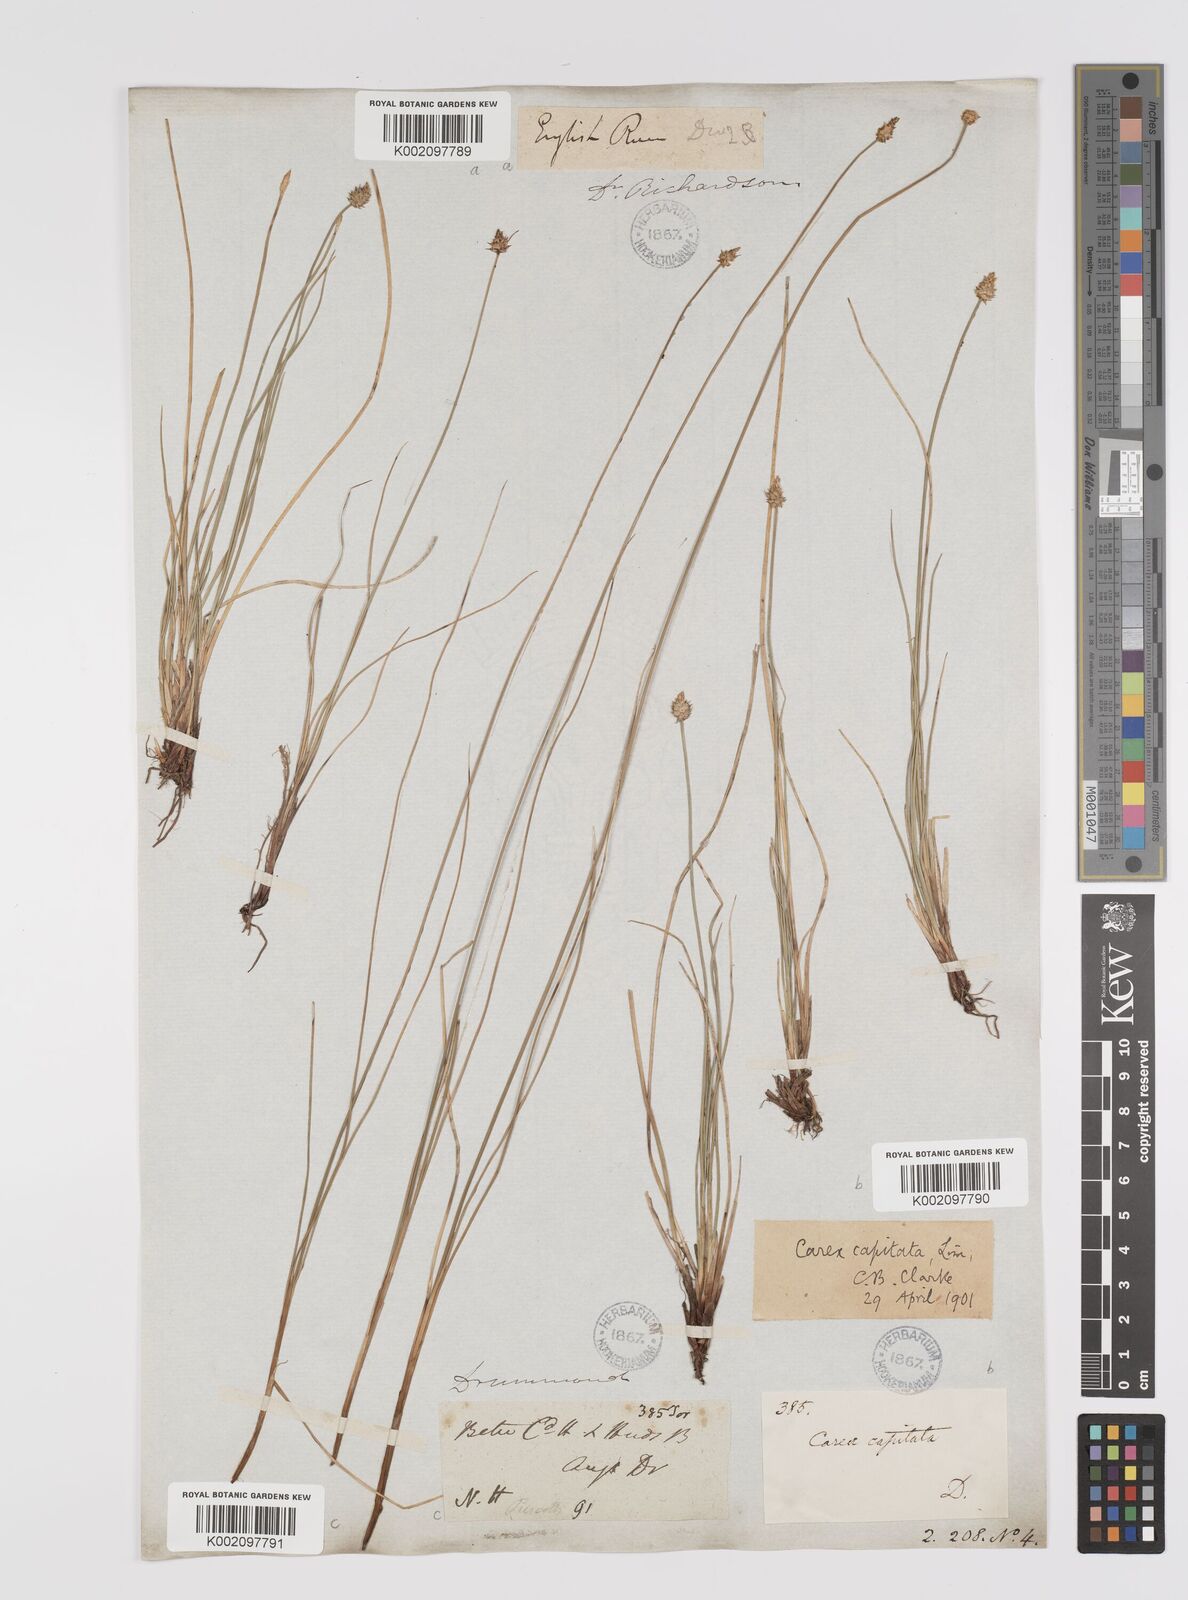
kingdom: Plantae
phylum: Tracheophyta
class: Liliopsida
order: Poales
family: Cyperaceae
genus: Carex
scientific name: Carex capitata
